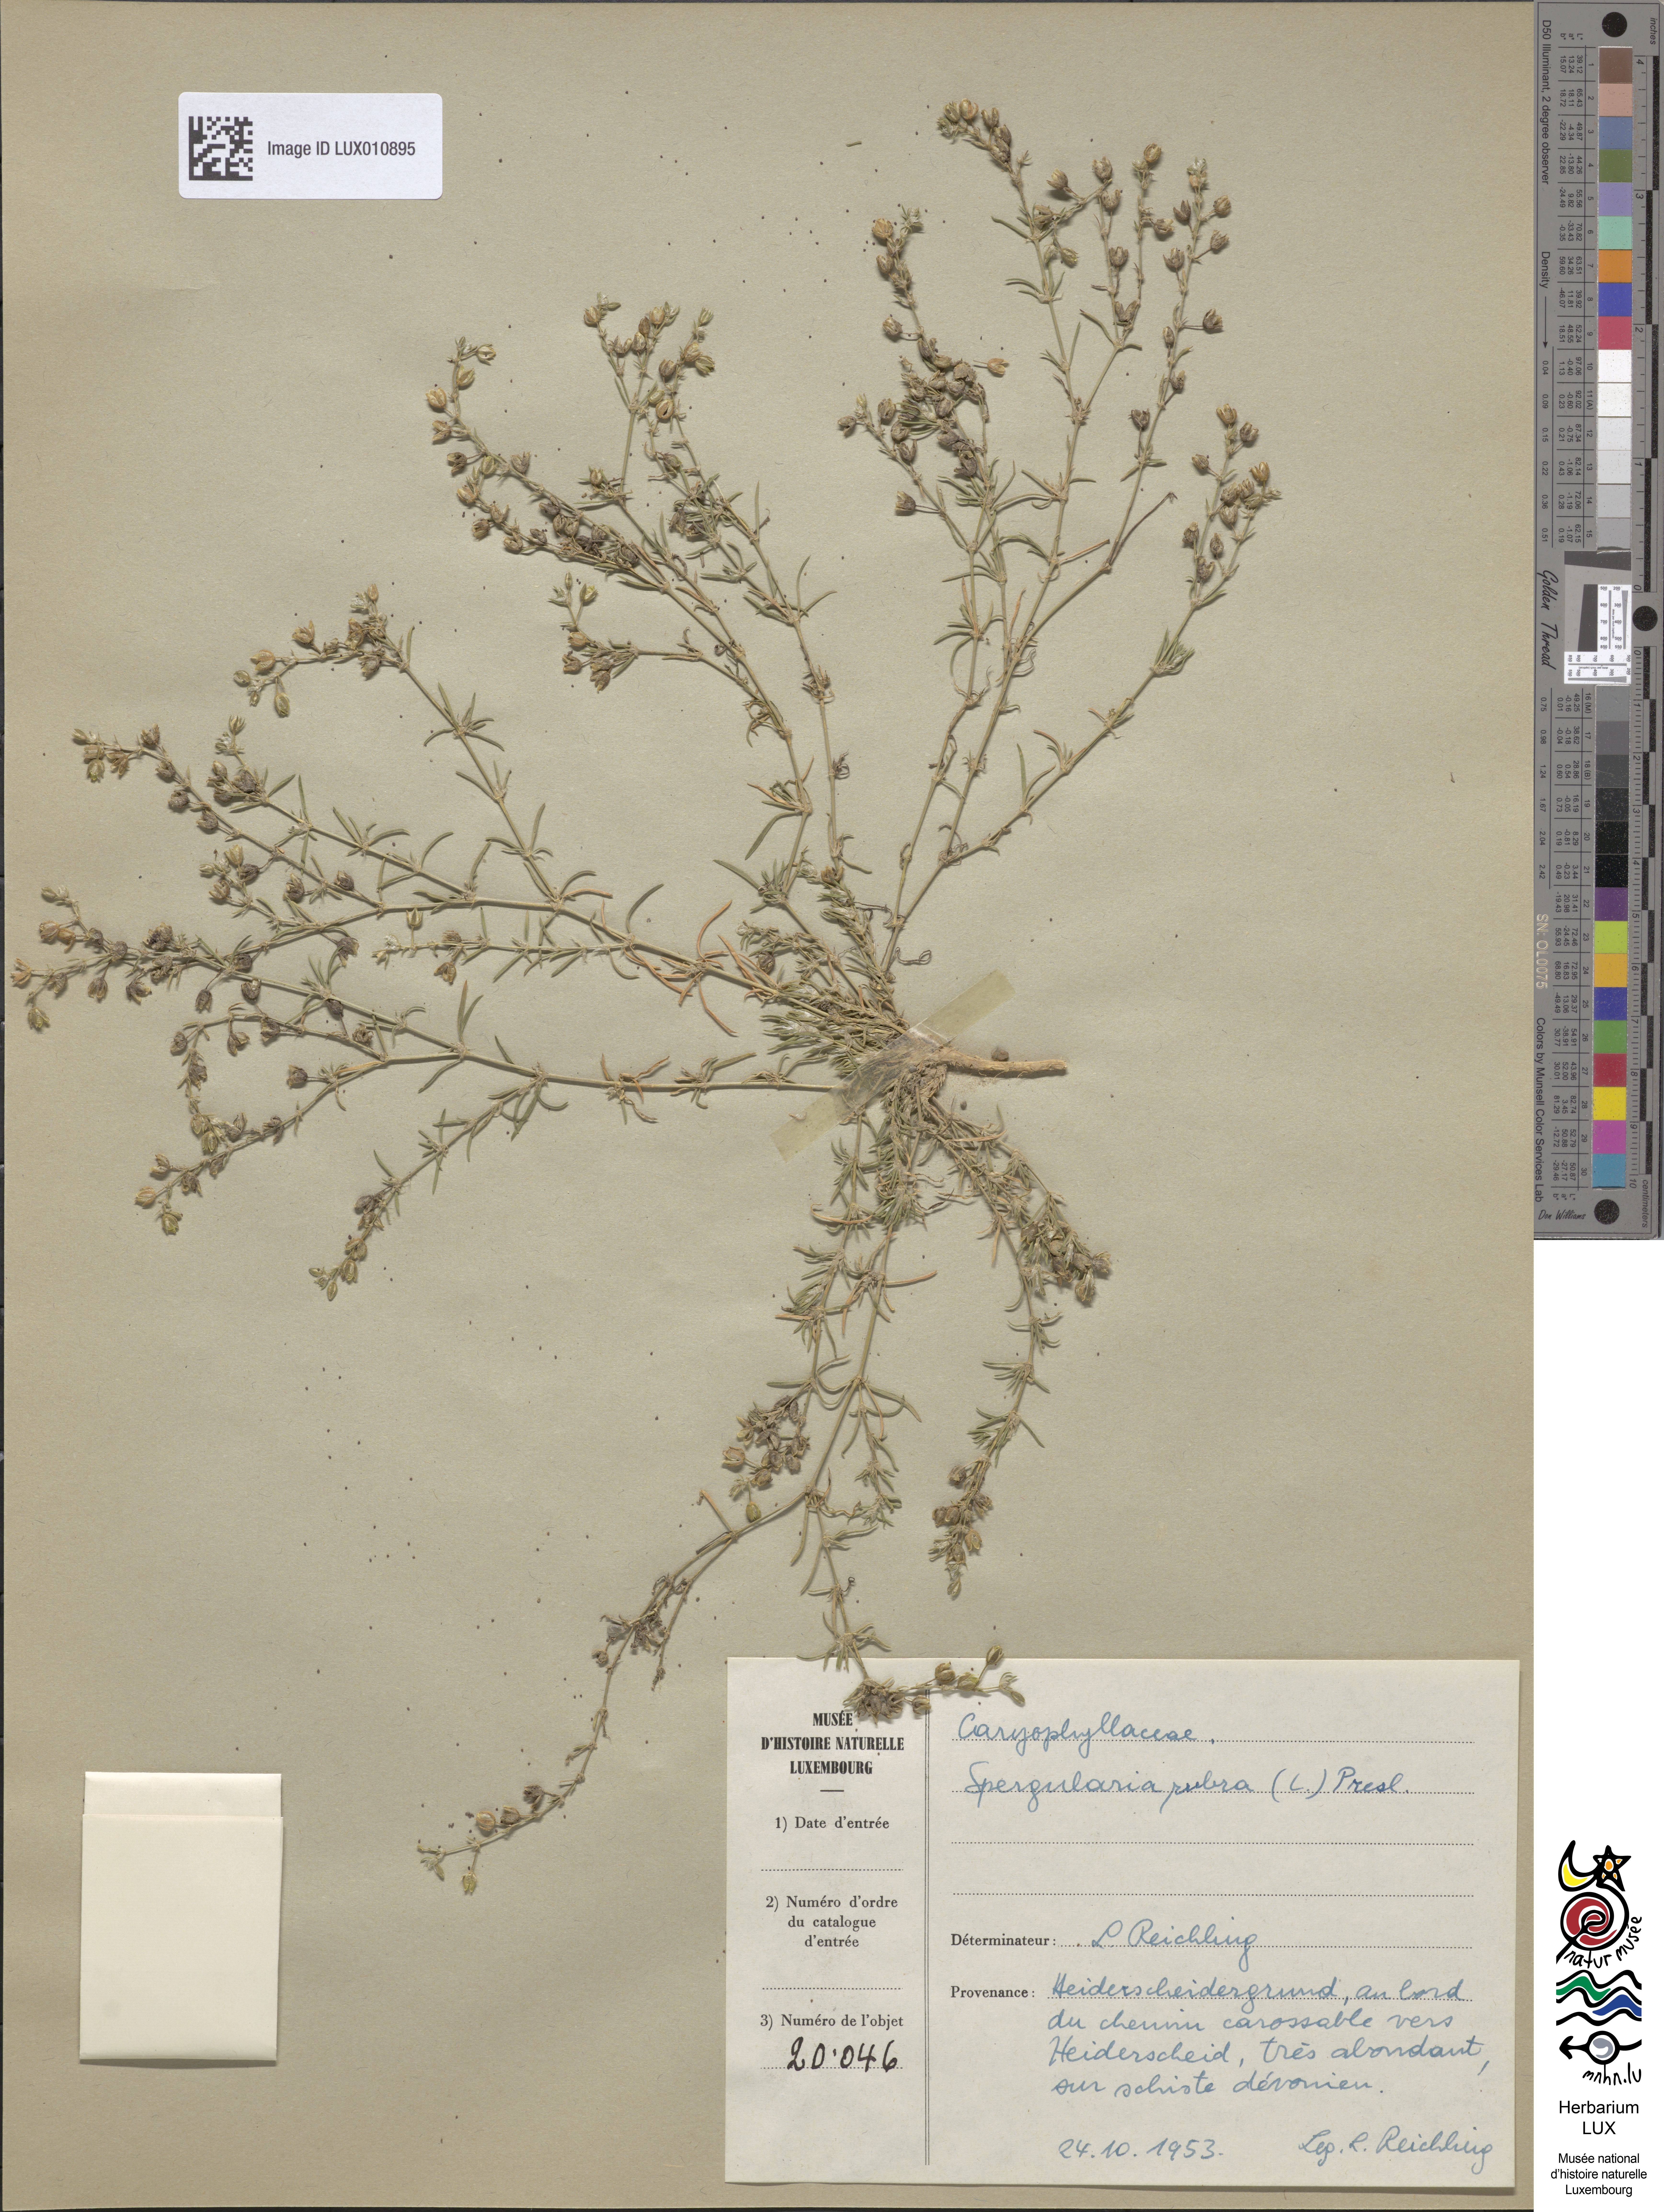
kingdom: Plantae
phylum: Tracheophyta
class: Magnoliopsida
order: Caryophyllales
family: Caryophyllaceae
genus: Spergularia
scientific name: Spergularia rubra
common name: Red sand-spurrey
